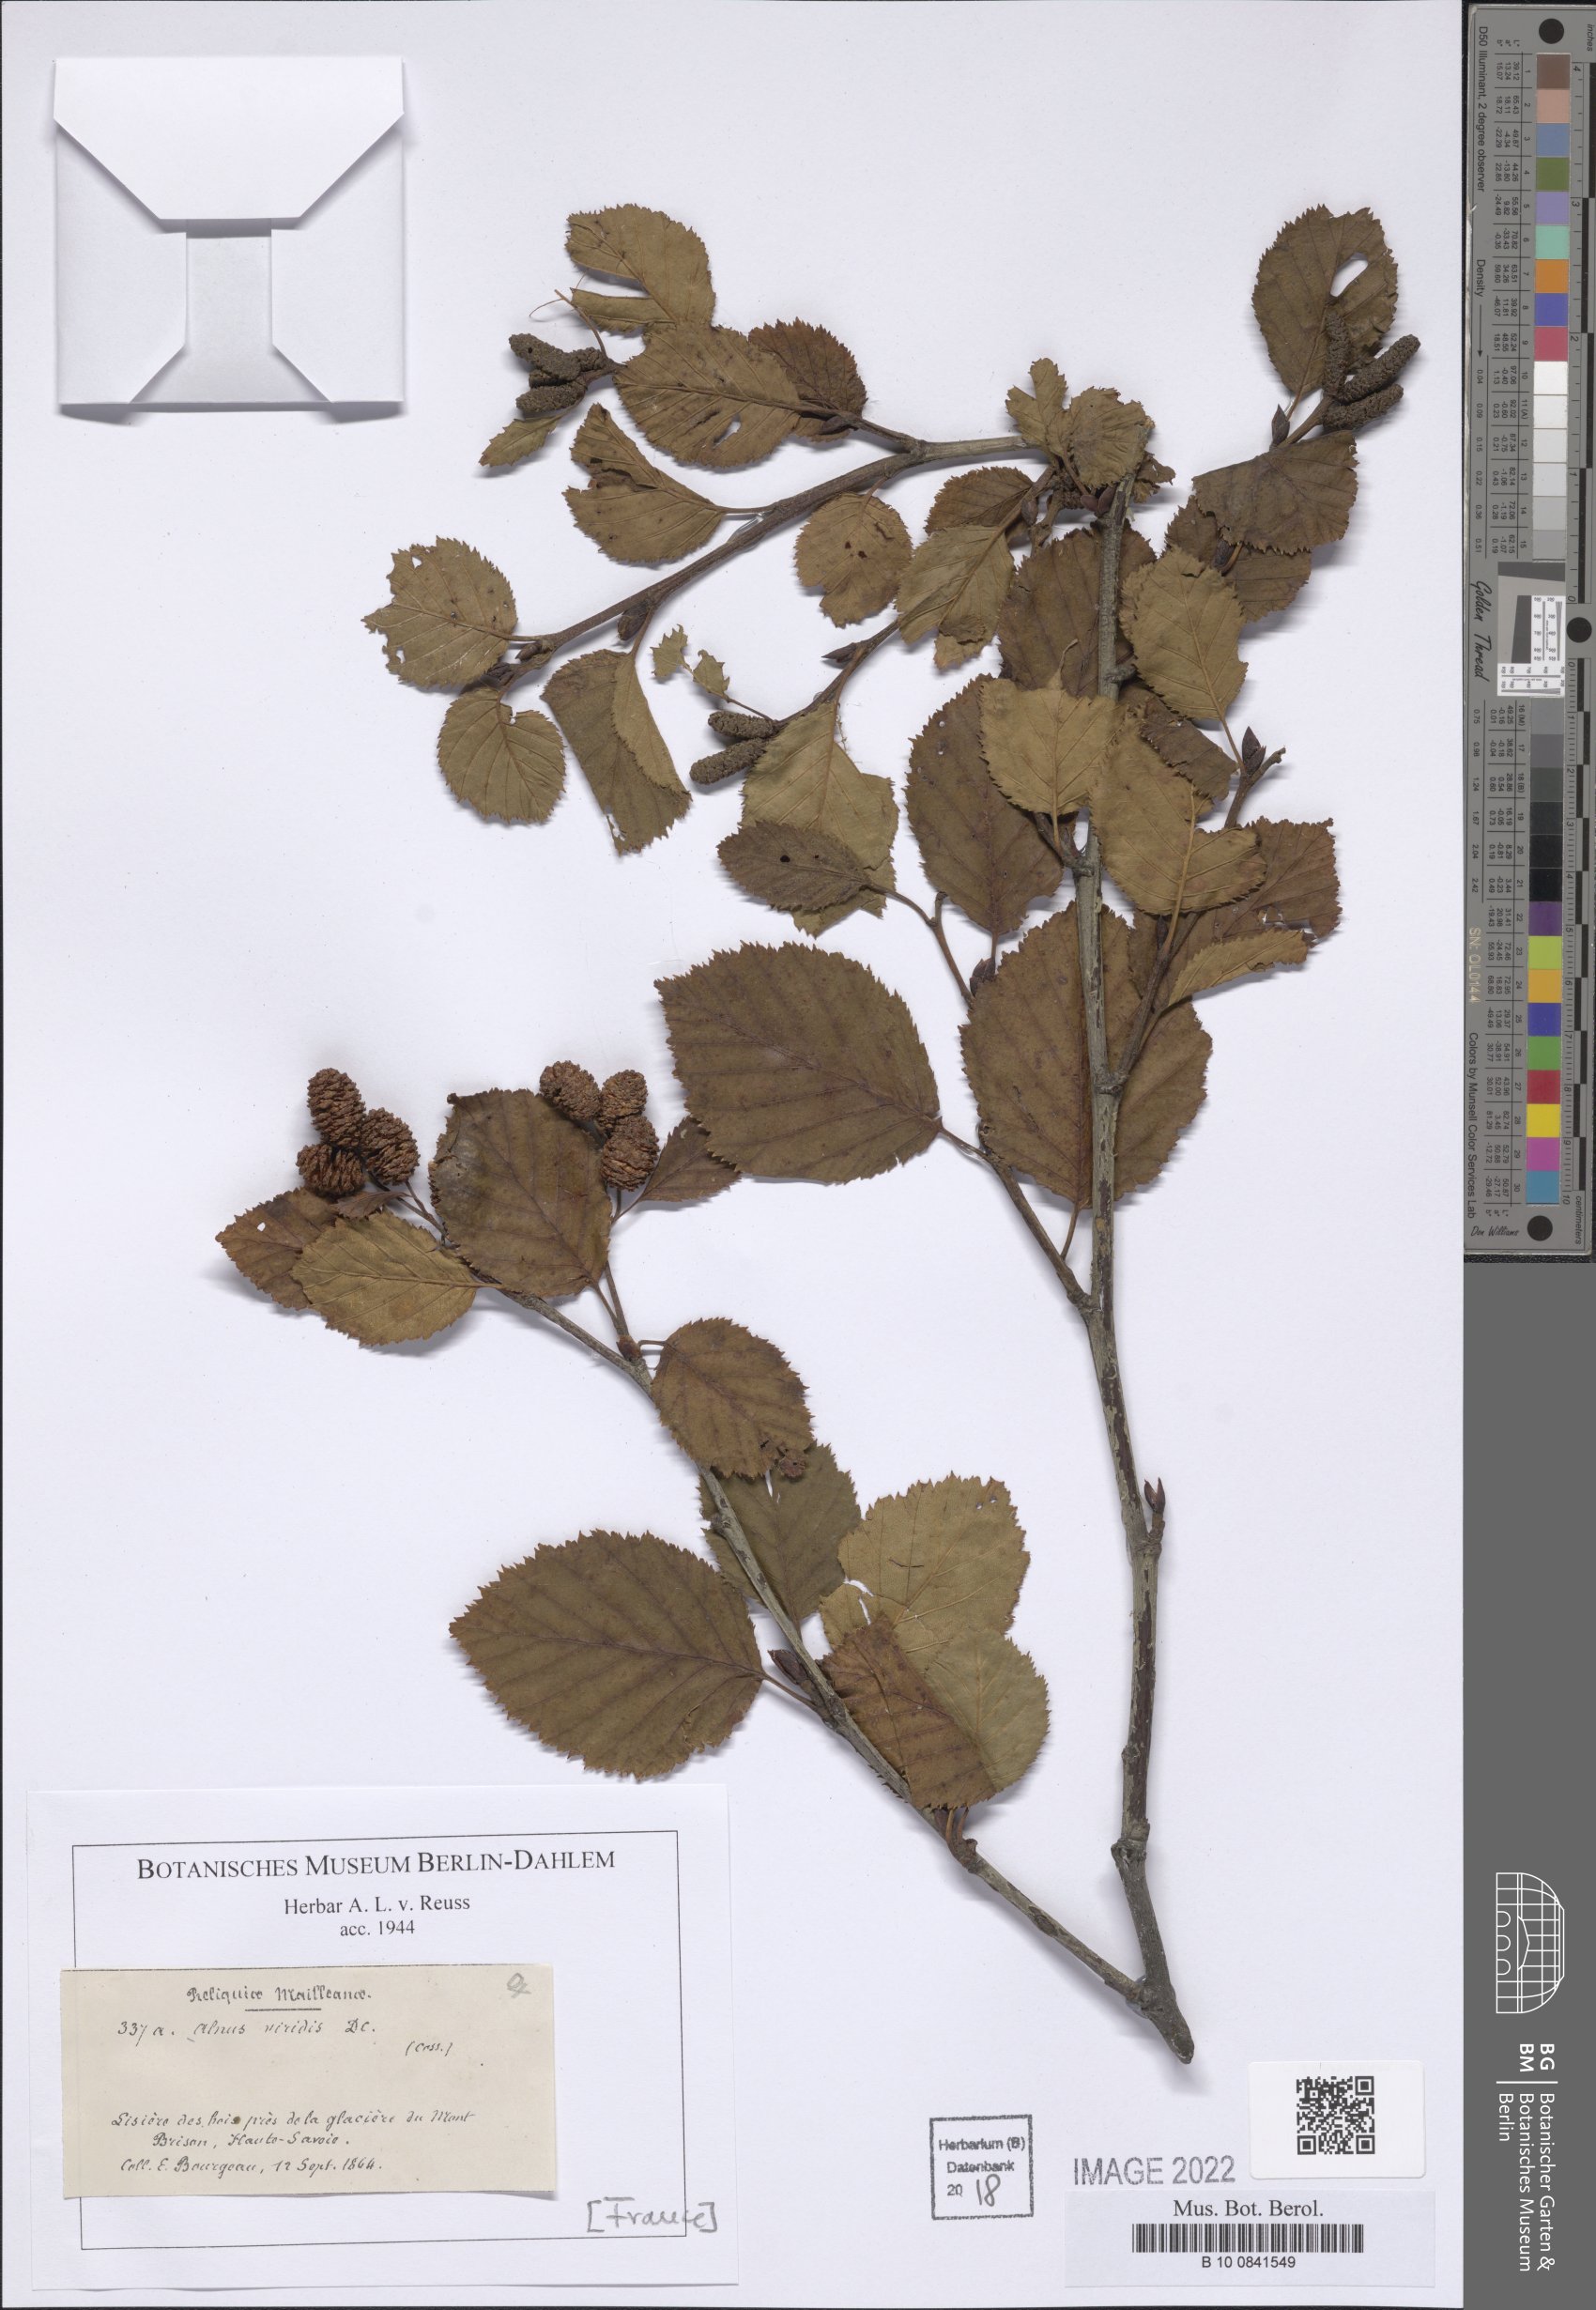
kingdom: Plantae
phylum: Tracheophyta
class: Magnoliopsida
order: Fagales
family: Betulaceae
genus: Alnus
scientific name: Alnus alnobetula
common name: Green alder
